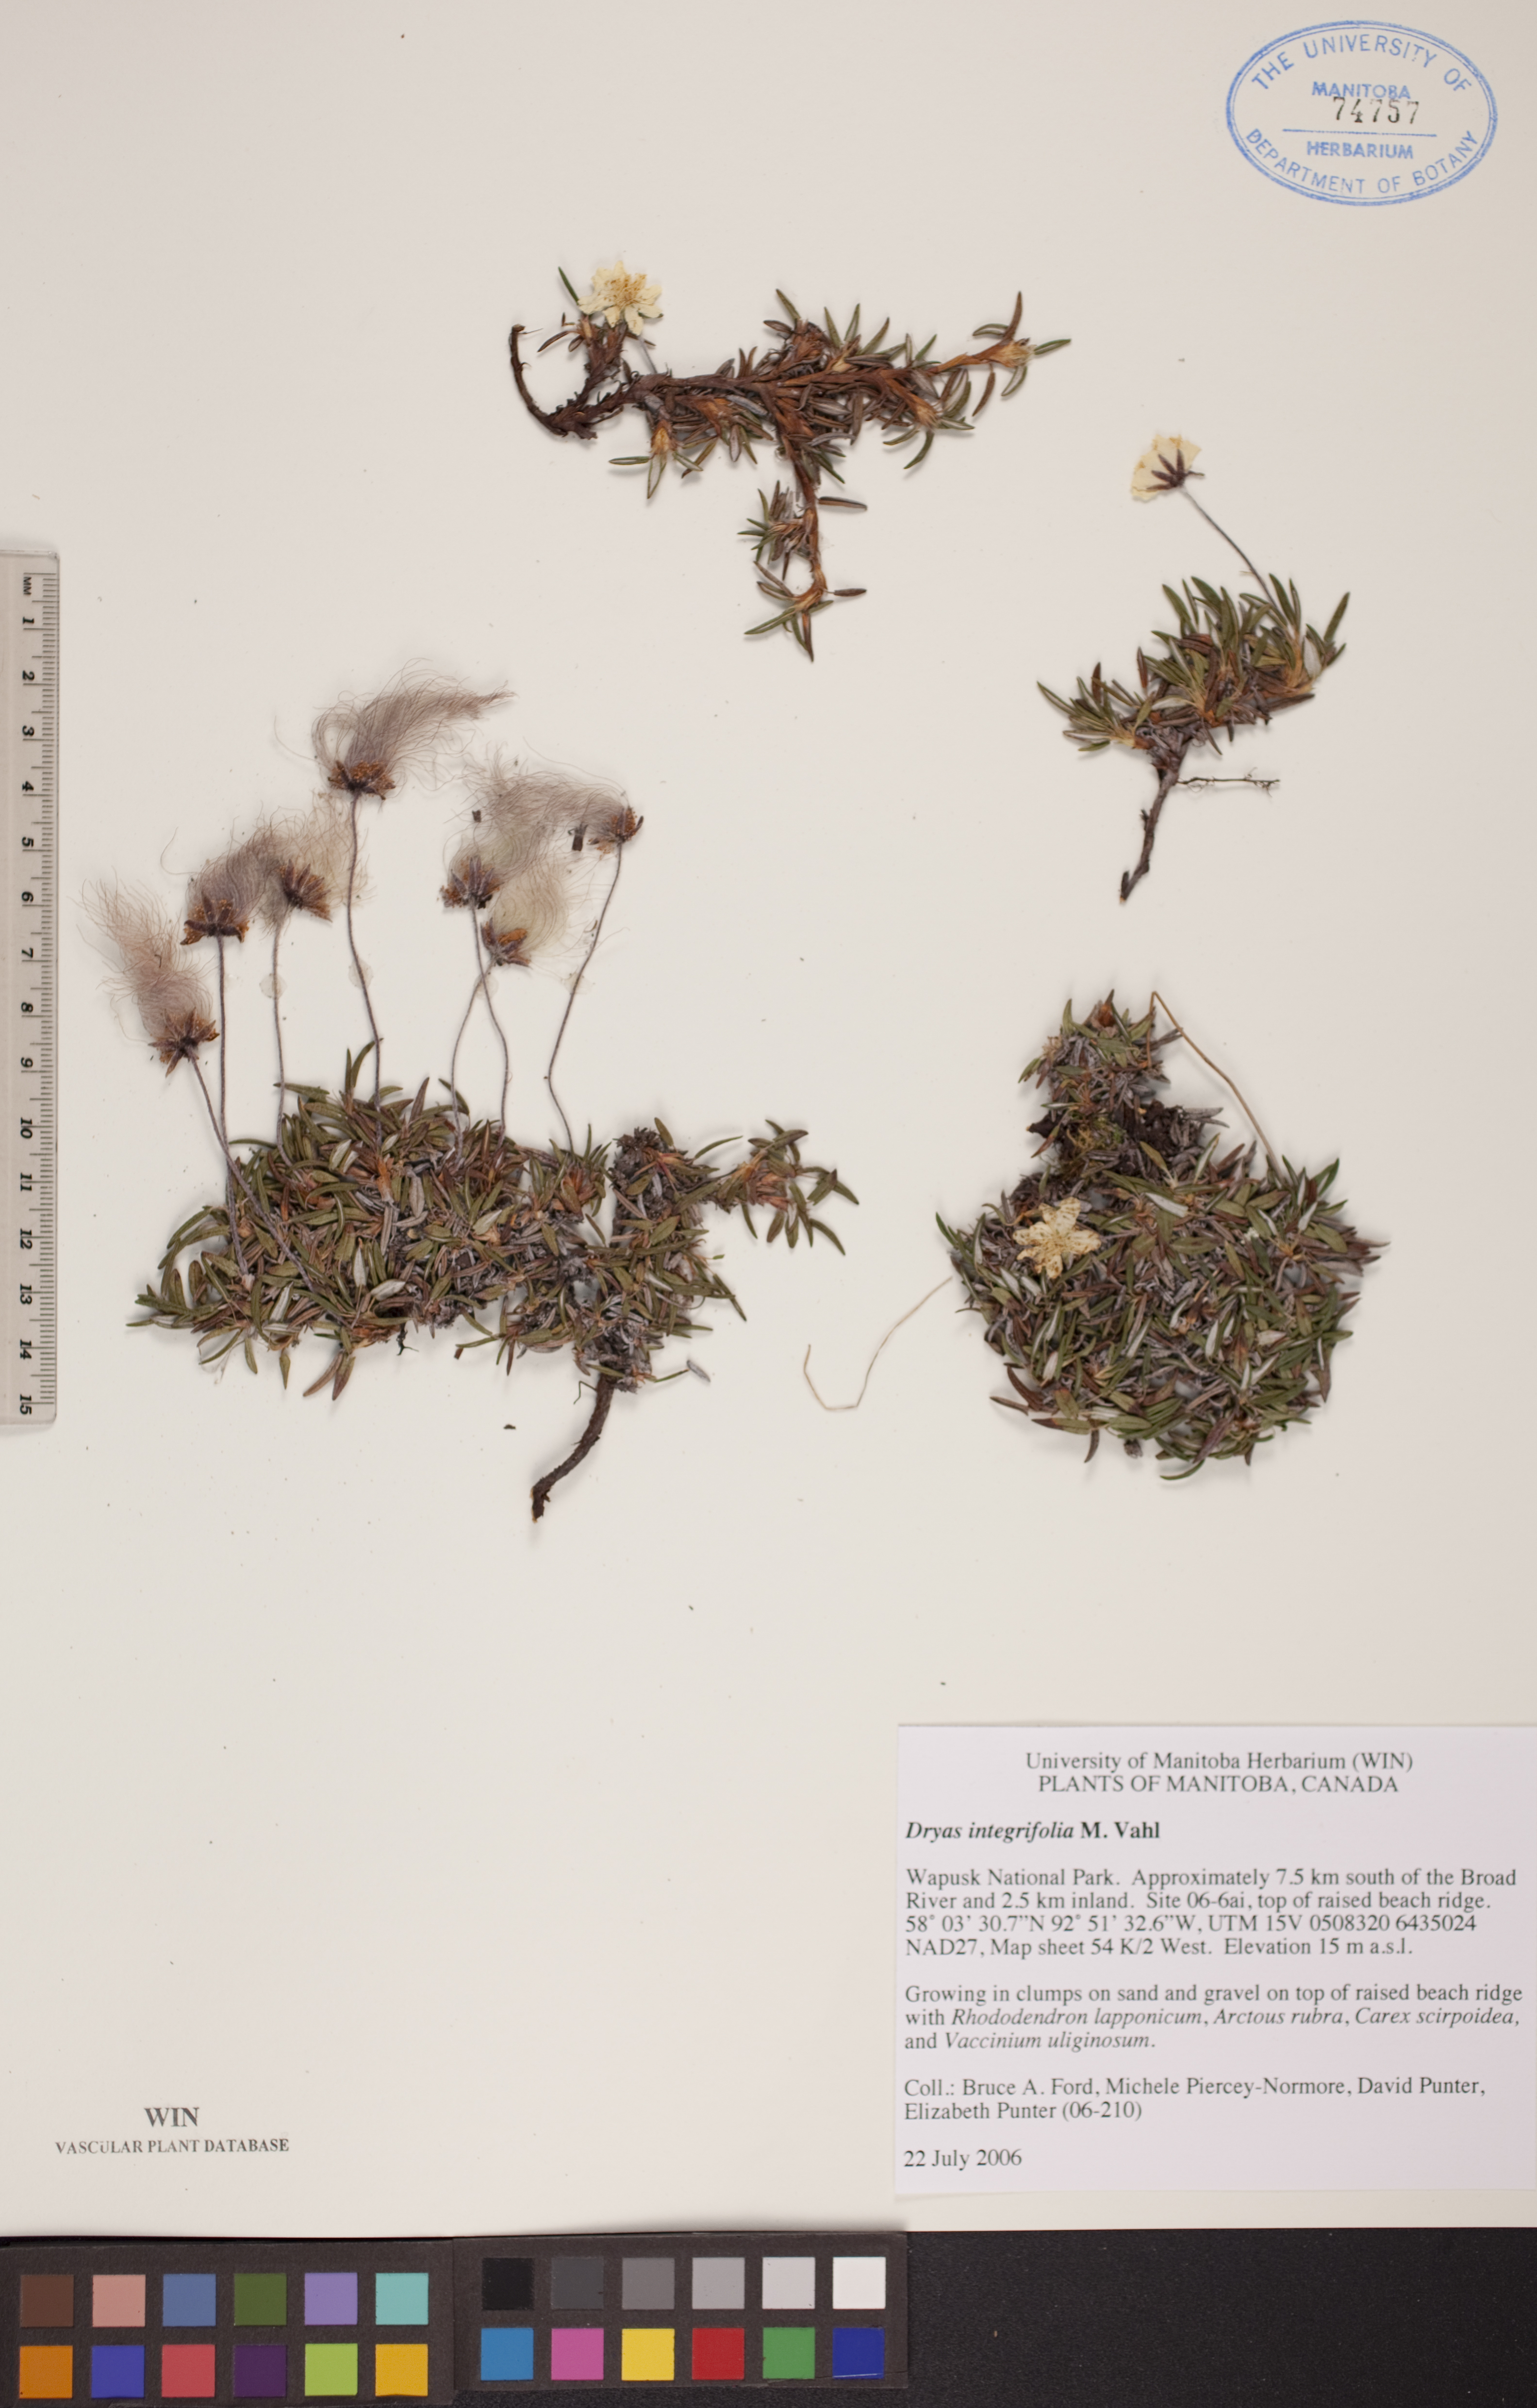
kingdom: Plantae
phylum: Tracheophyta
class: Magnoliopsida
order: Rosales
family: Rosaceae
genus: Dryas
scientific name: Dryas integrifolia
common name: Entire-leaved mountain avens
